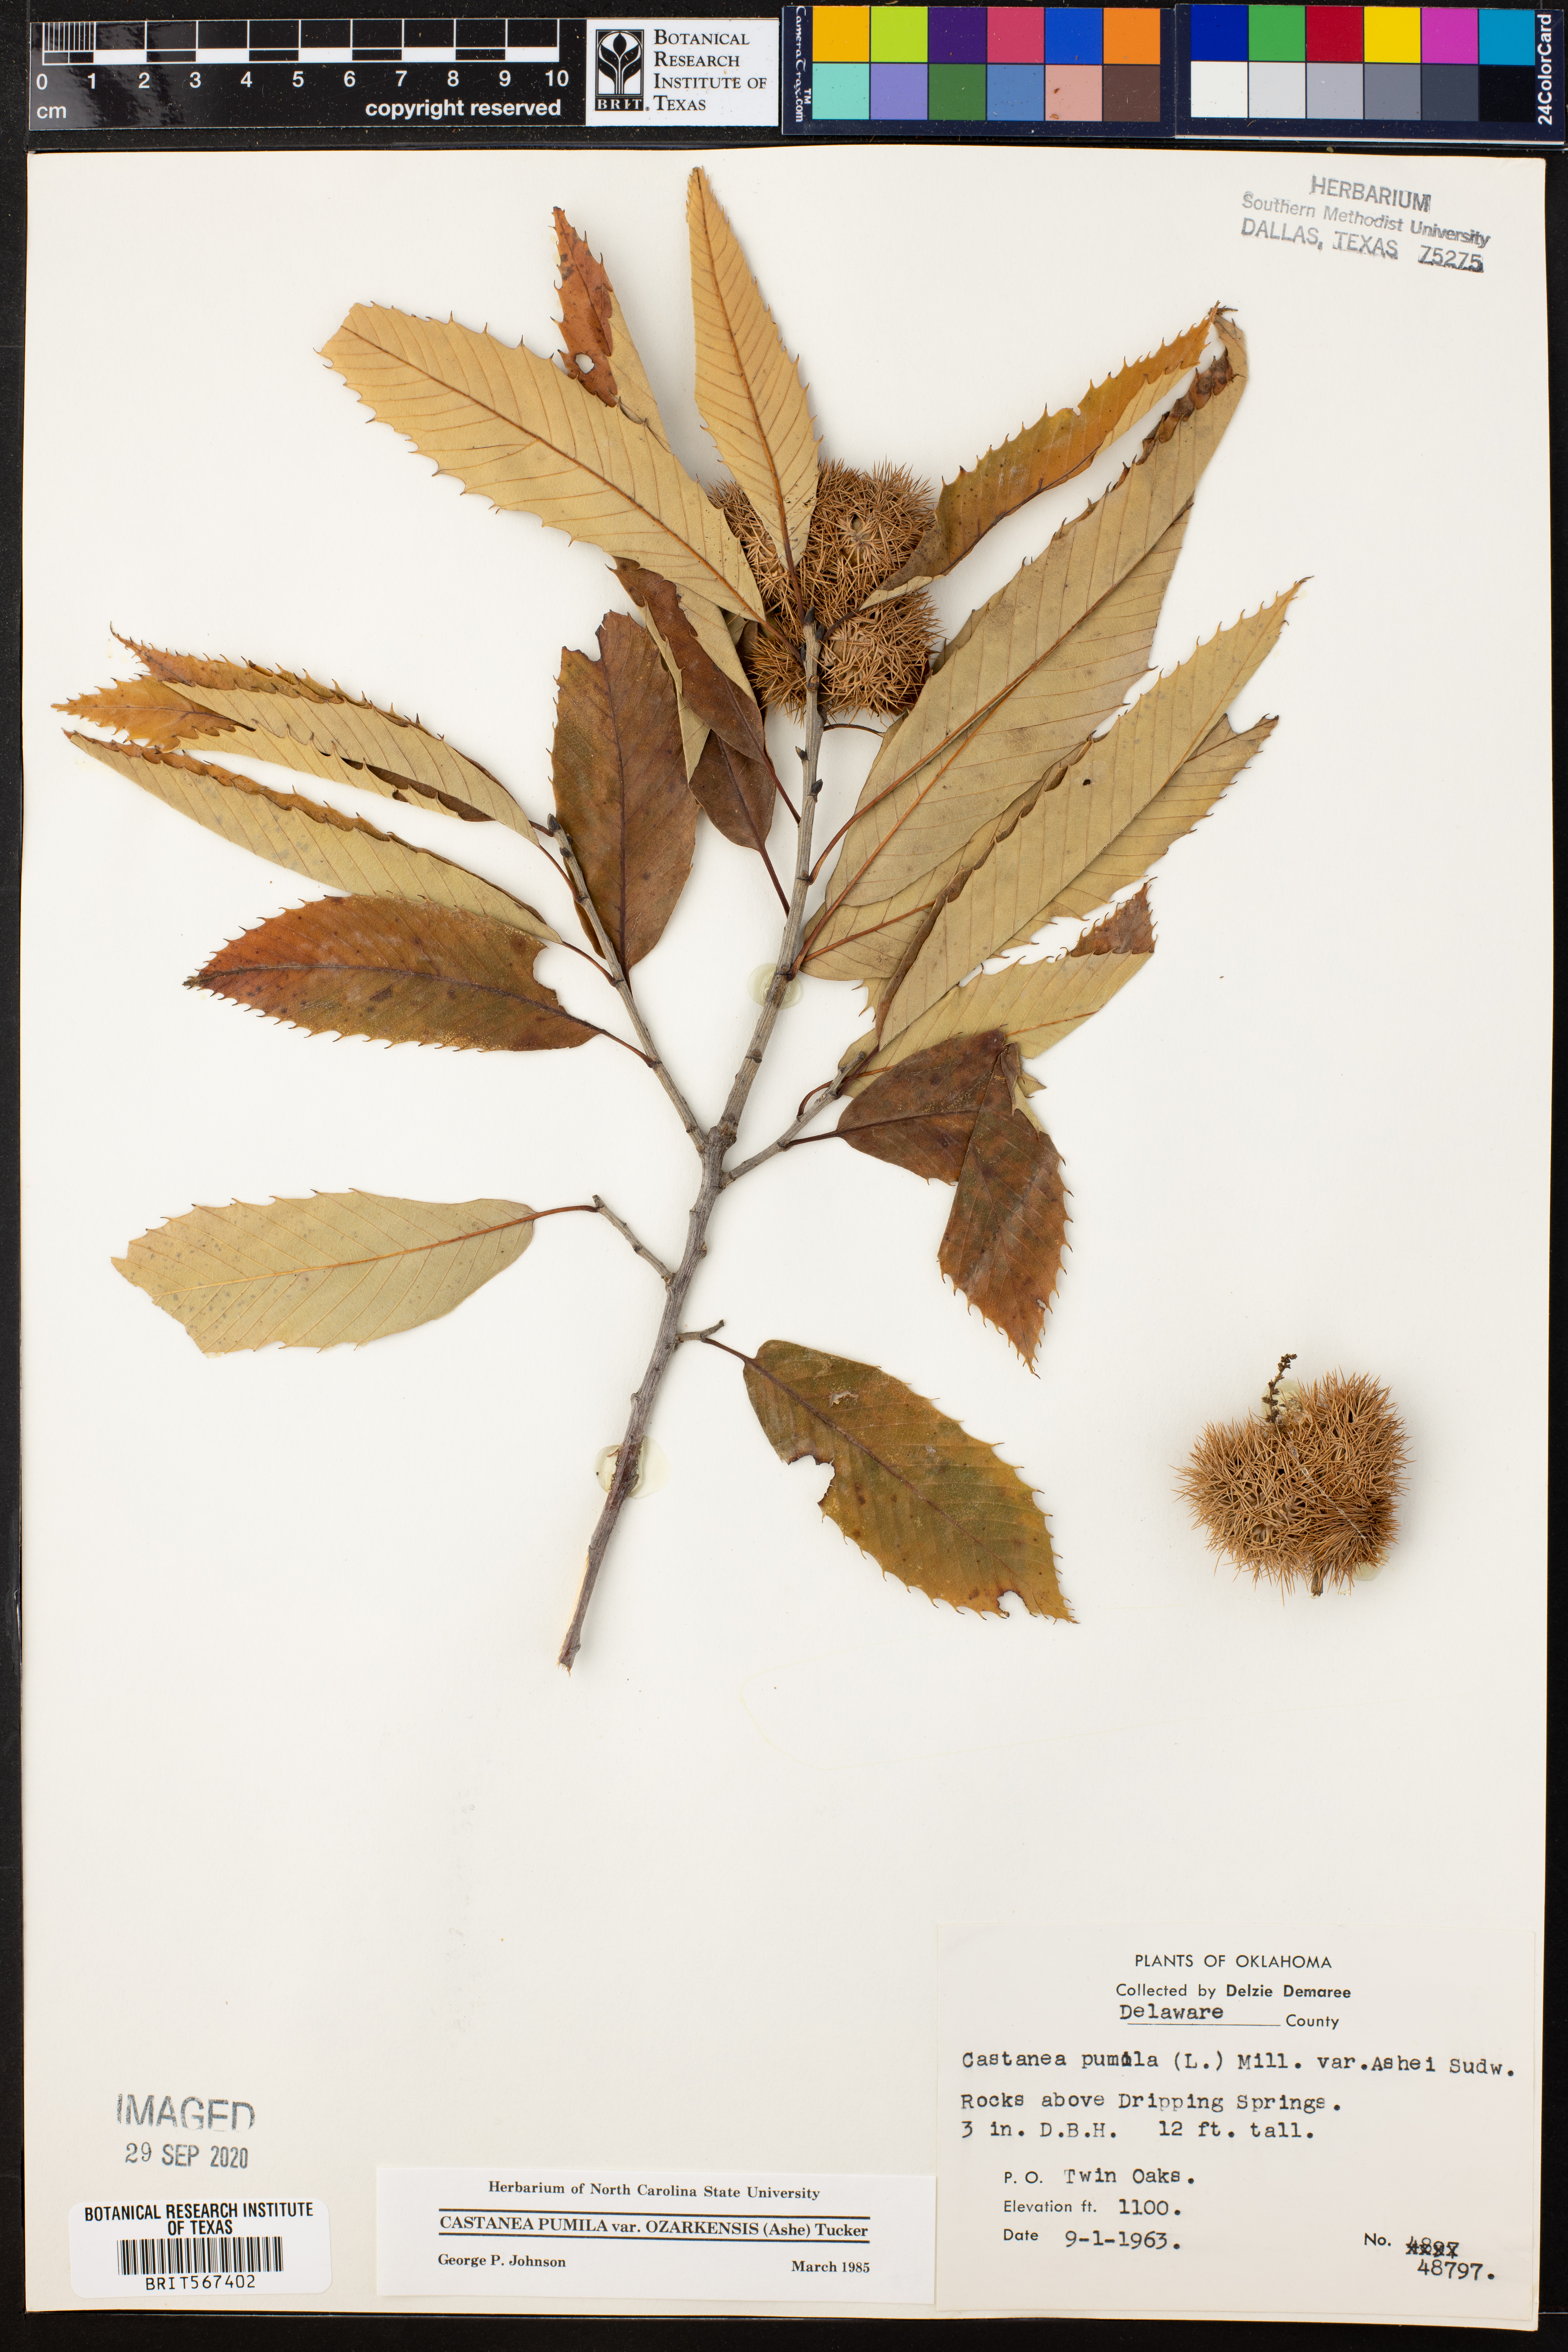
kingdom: Plantae
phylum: Tracheophyta
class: Magnoliopsida
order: Fagales
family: Fagaceae
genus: Castanea
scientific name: Castanea ozarkensis
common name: Ozark chinkapin
